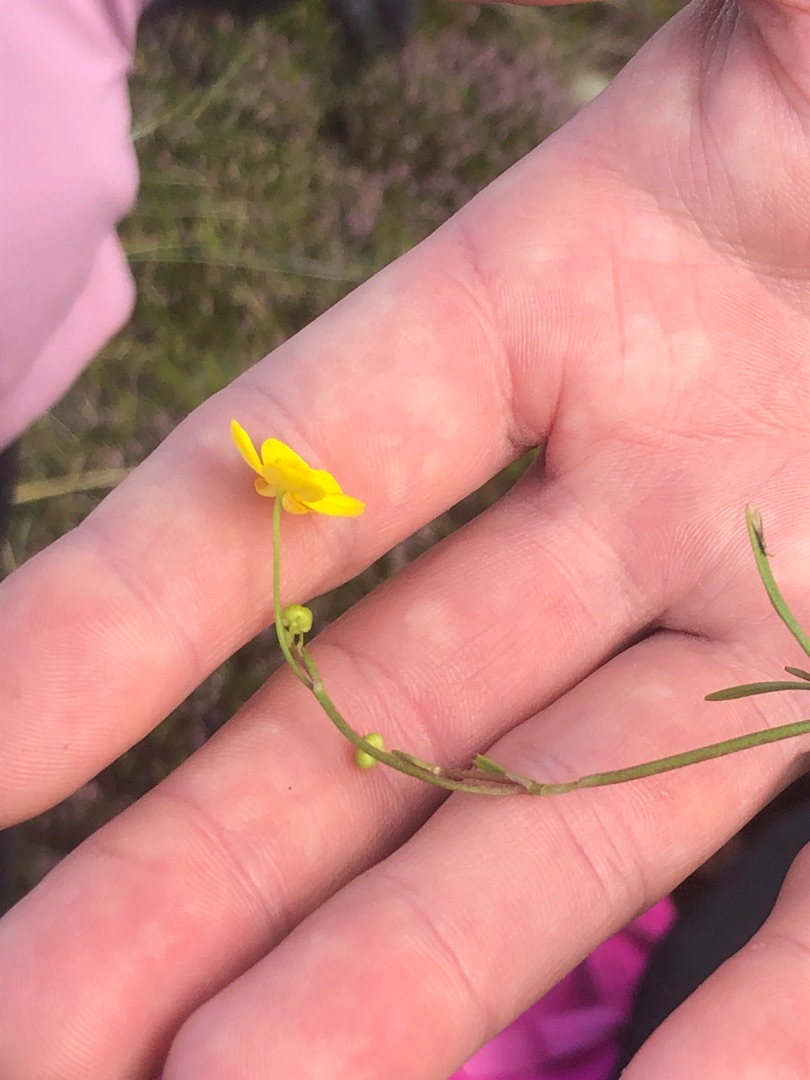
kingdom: Plantae
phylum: Tracheophyta
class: Magnoliopsida
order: Ranunculales
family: Ranunculaceae
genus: Ranunculus
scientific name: Ranunculus flammula
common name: Kær-ranunkel
